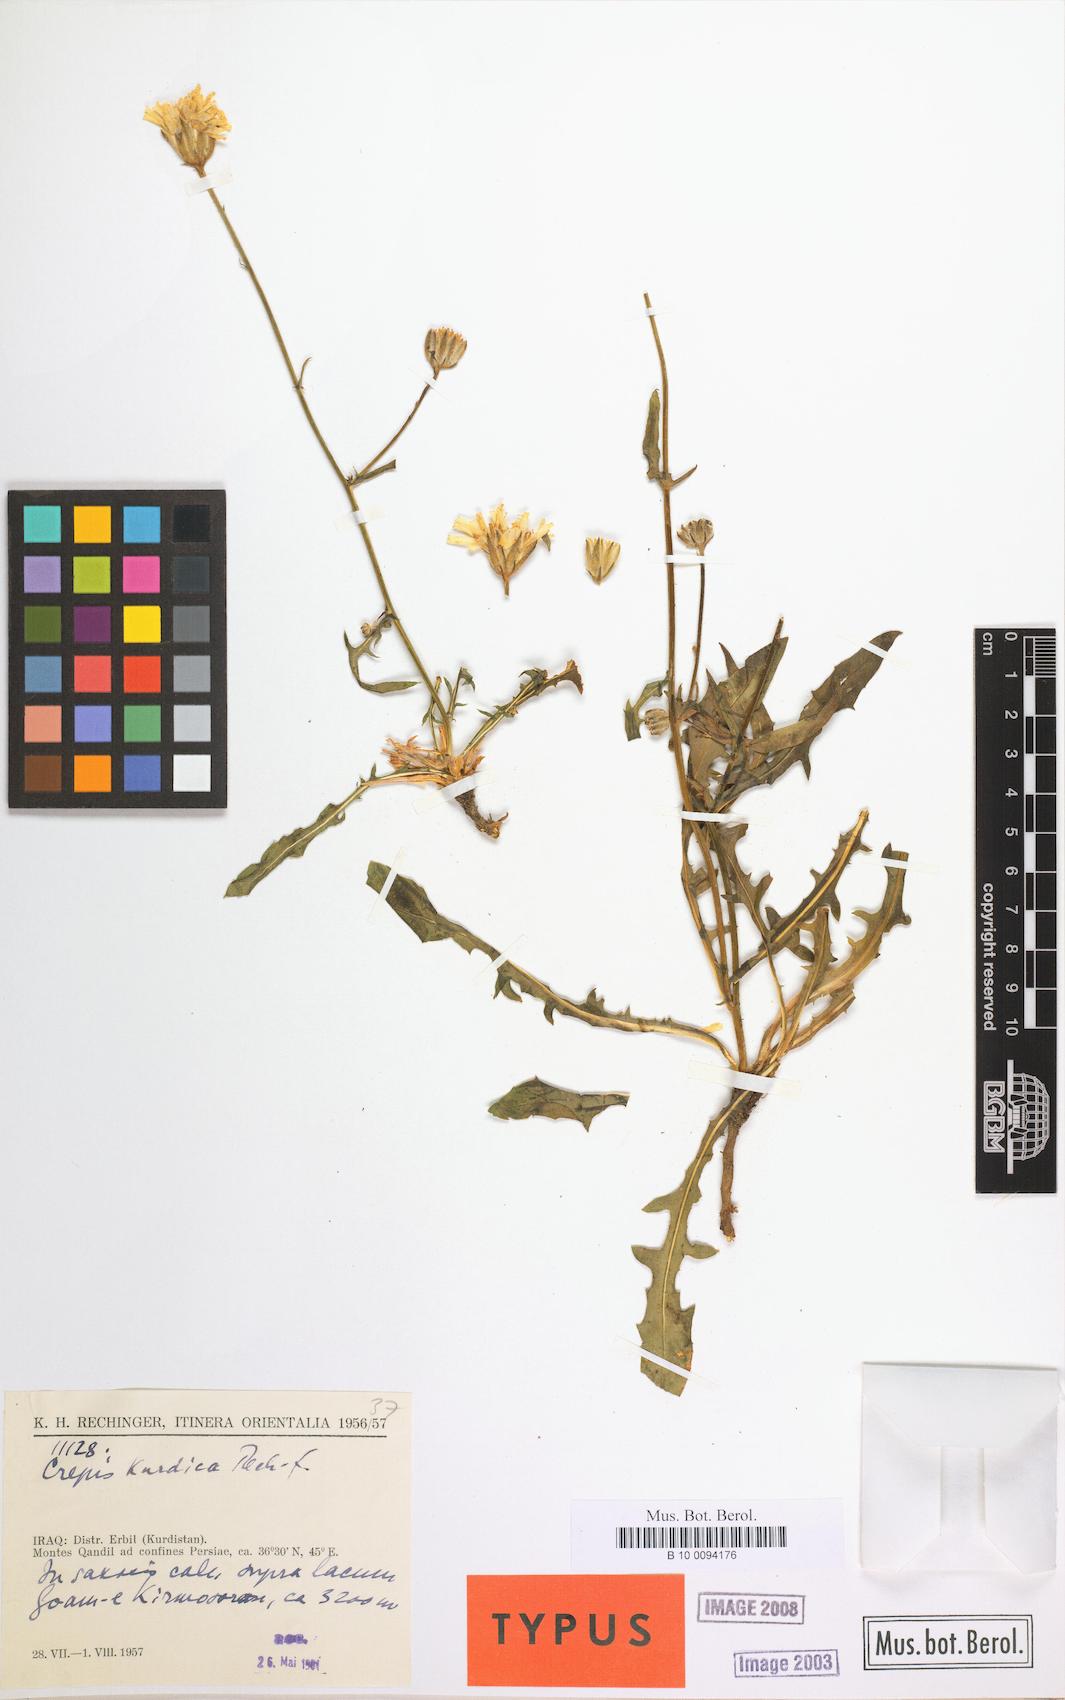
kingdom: Plantae
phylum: Tracheophyta
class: Magnoliopsida
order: Asterales
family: Asteraceae
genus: Crepis
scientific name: Crepis kurdica
